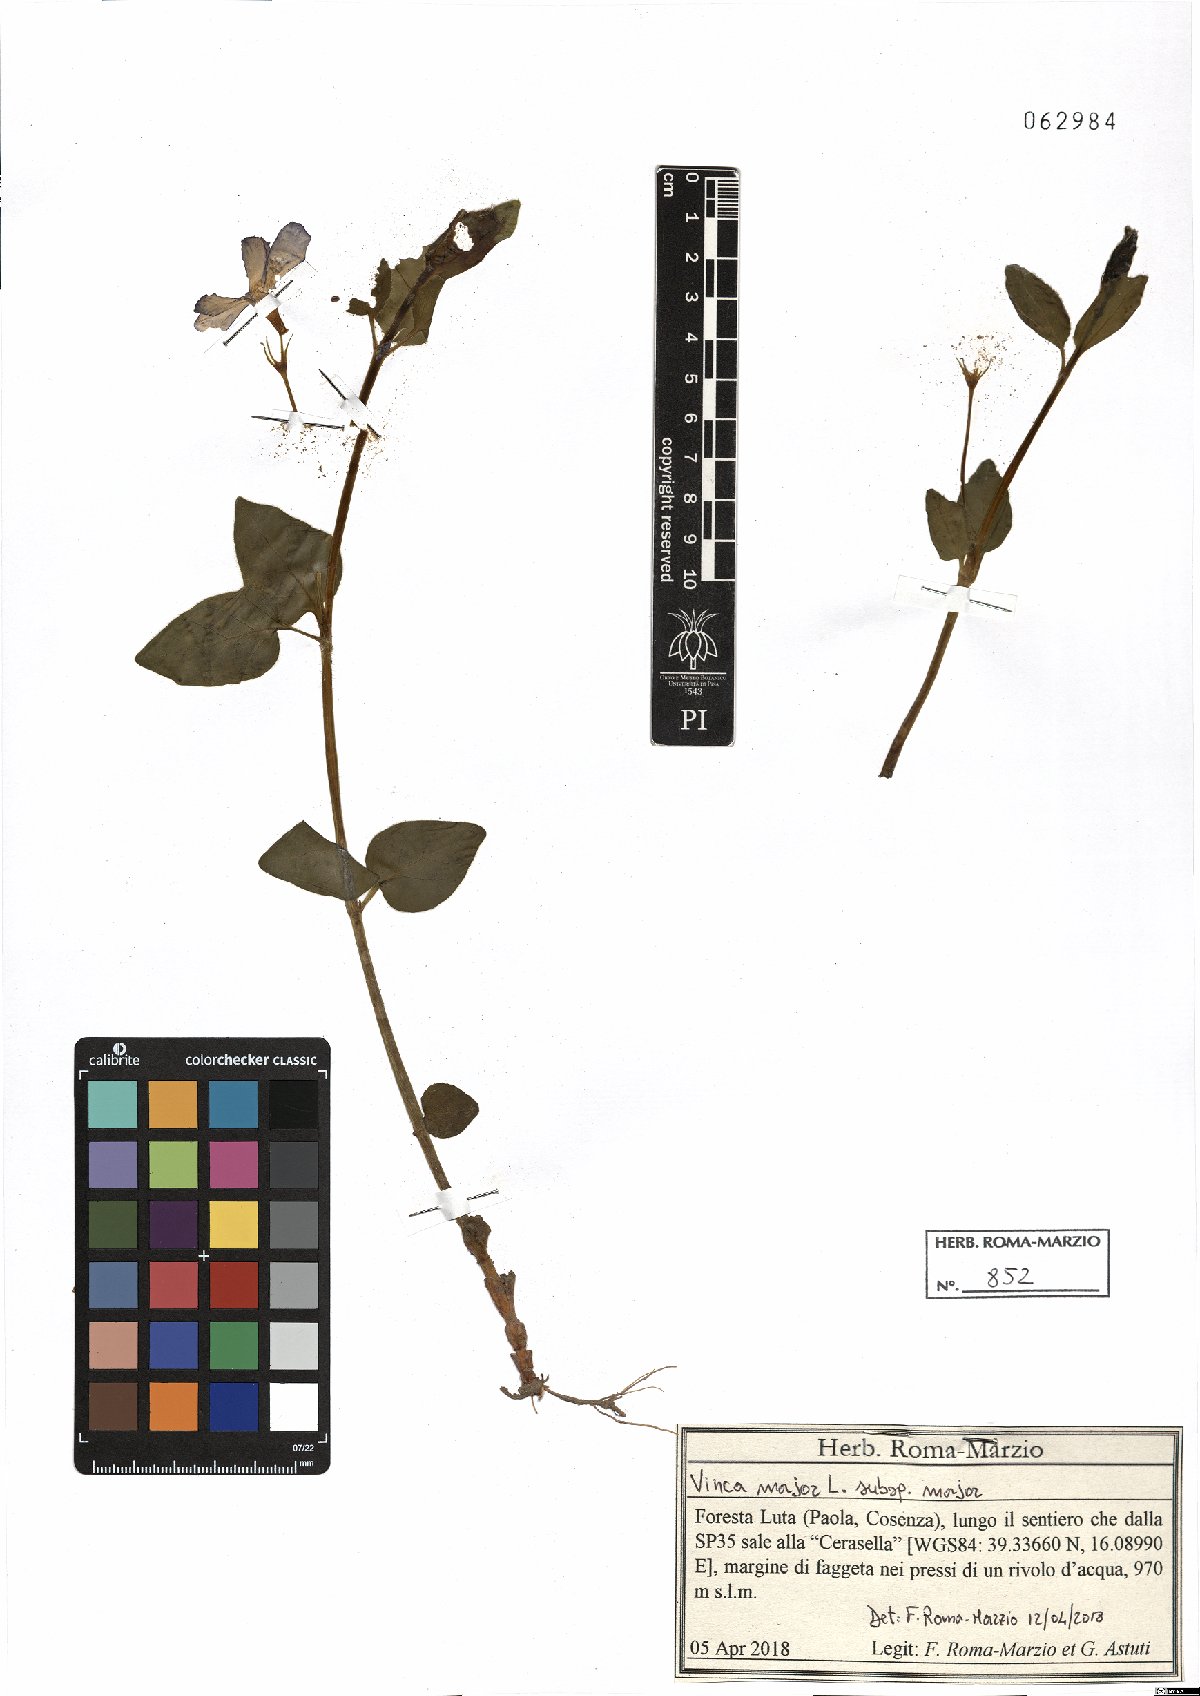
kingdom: Plantae
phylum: Tracheophyta
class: Magnoliopsida
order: Gentianales
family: Apocynaceae
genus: Vinca
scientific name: Vinca major
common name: Greater periwinkle
